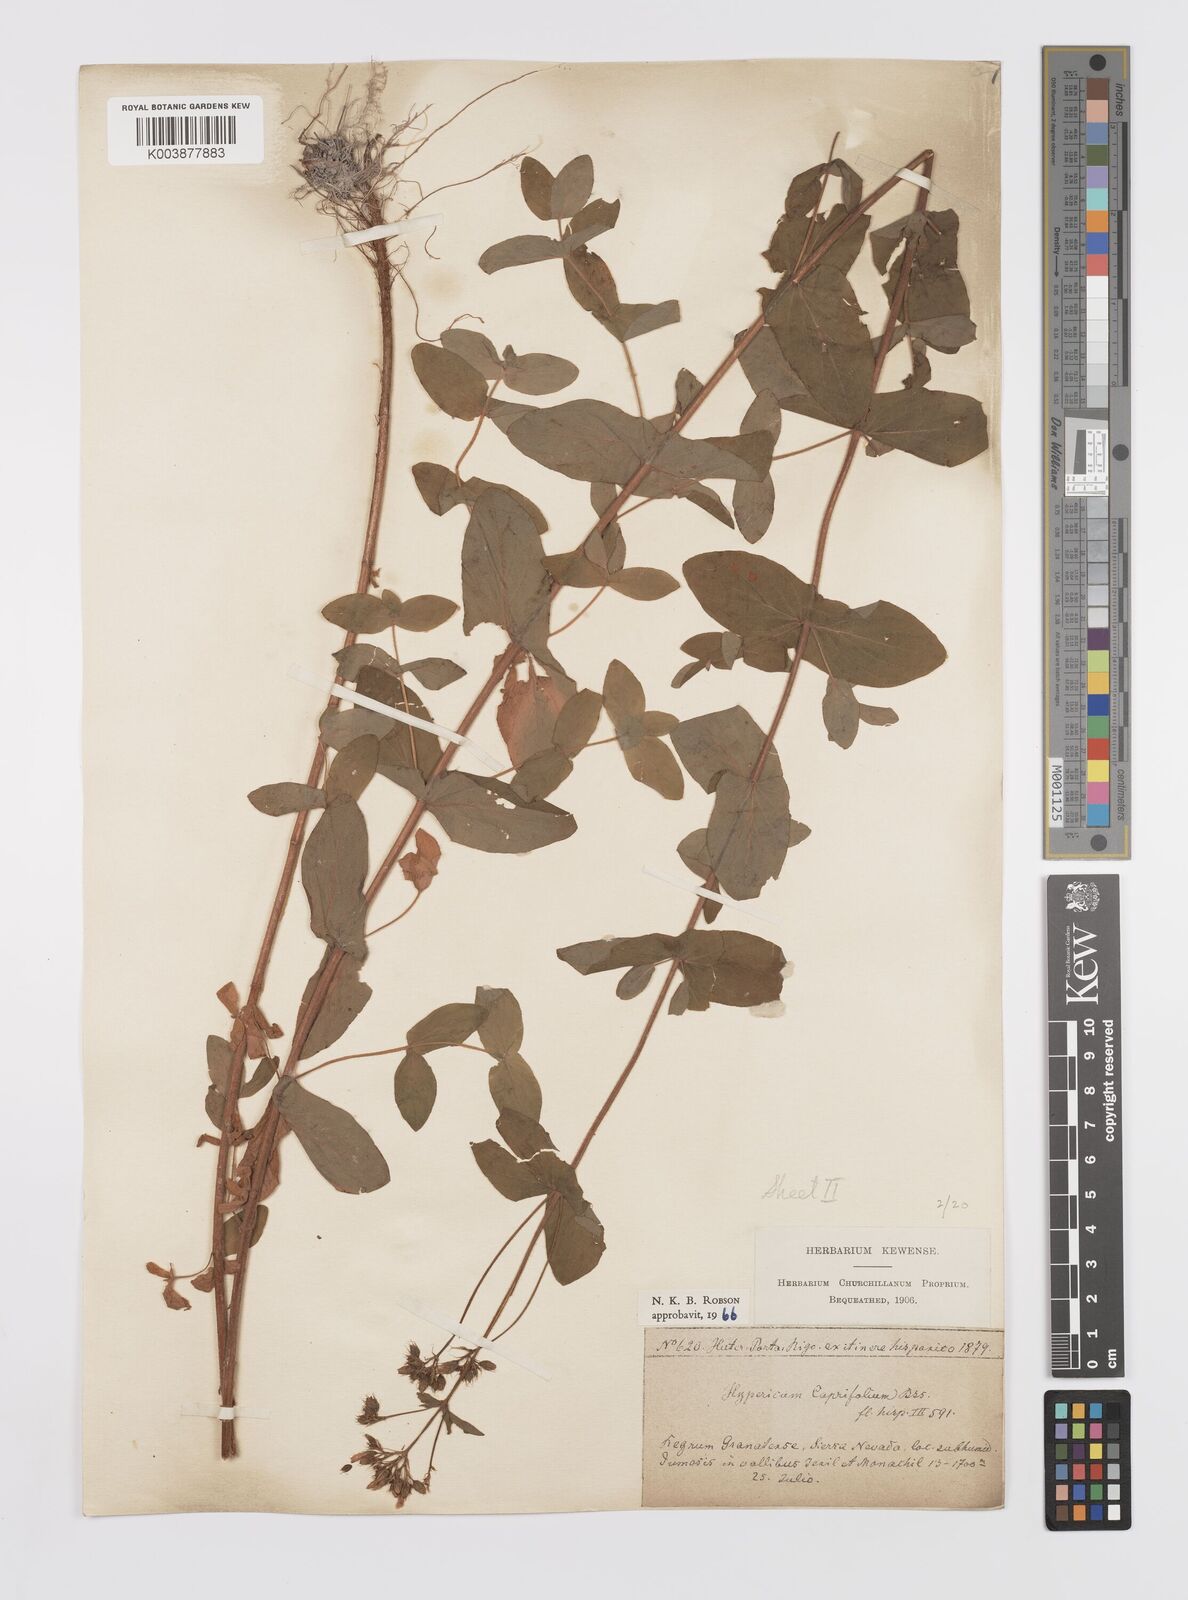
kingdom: Plantae
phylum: Tracheophyta
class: Magnoliopsida
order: Malpighiales
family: Hypericaceae
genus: Hypericum
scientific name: Hypericum caprifolium
